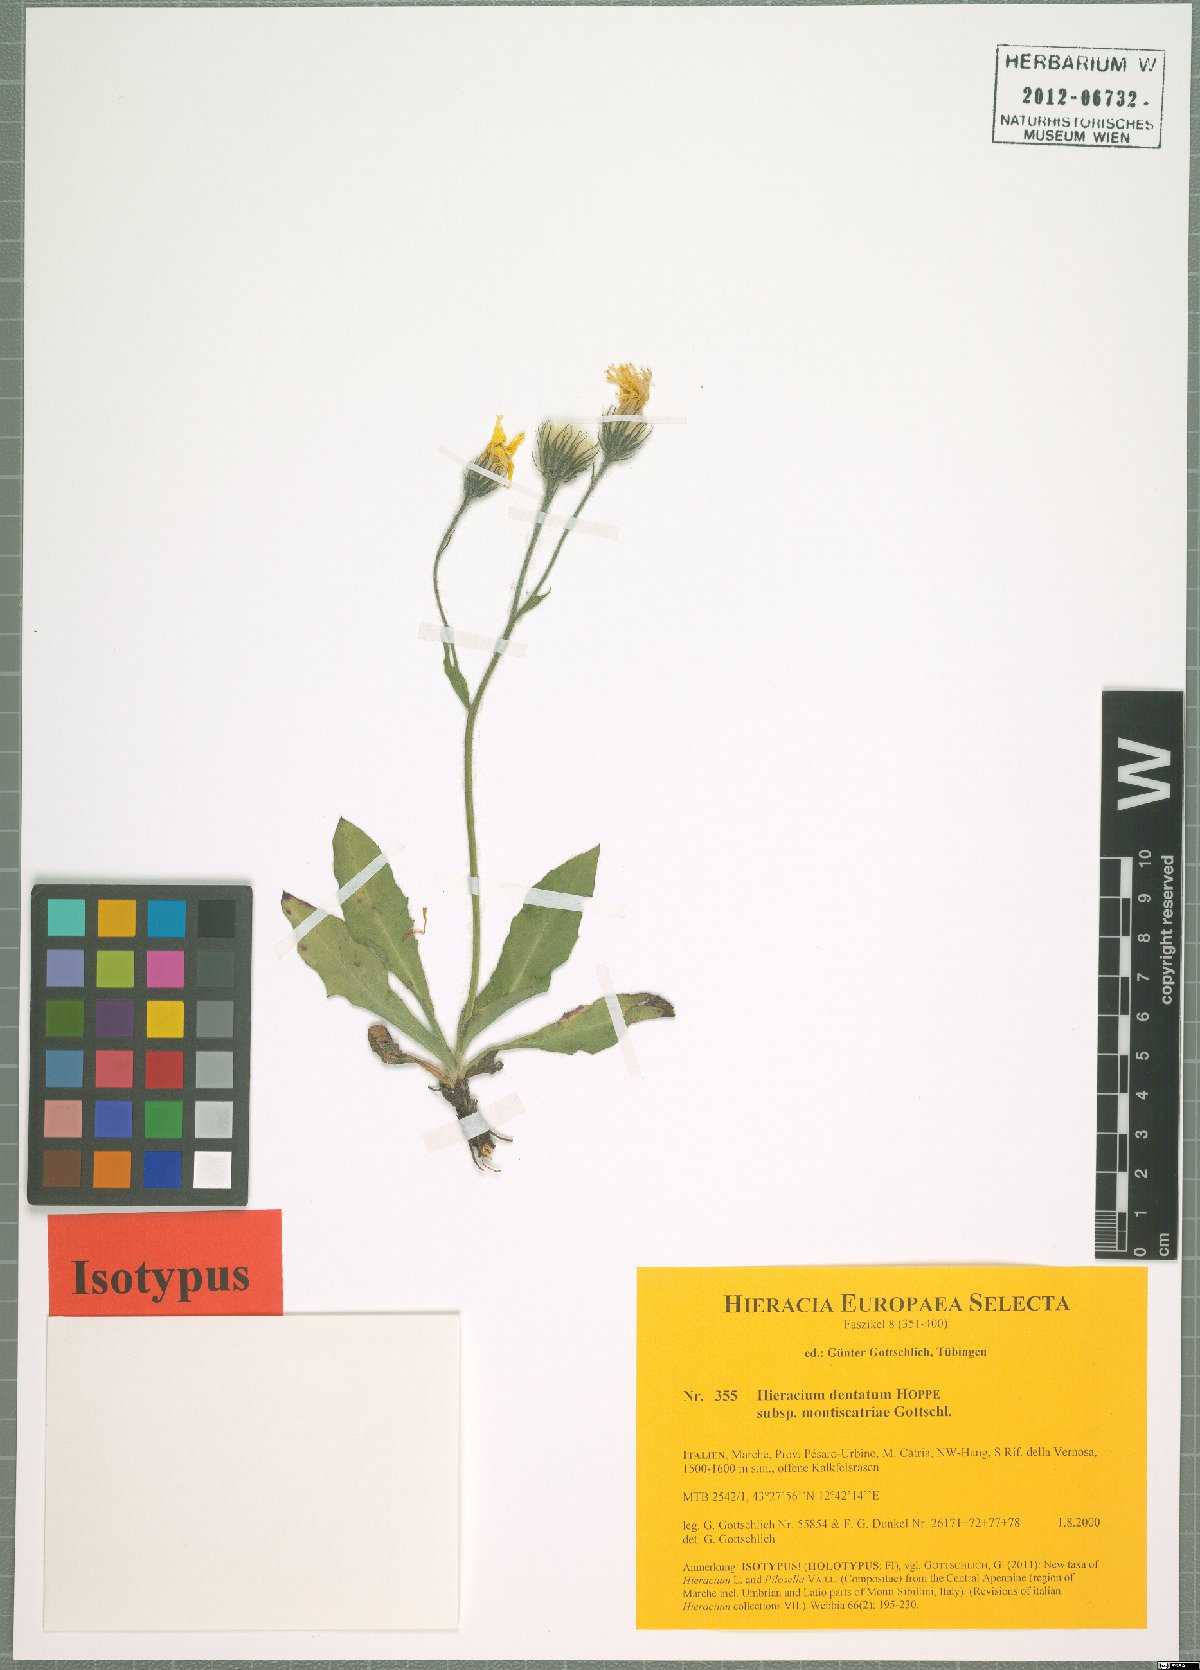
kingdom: Plantae
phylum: Tracheophyta
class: Magnoliopsida
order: Asterales
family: Asteraceae
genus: Hieracium
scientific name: Hieracium dentatum
